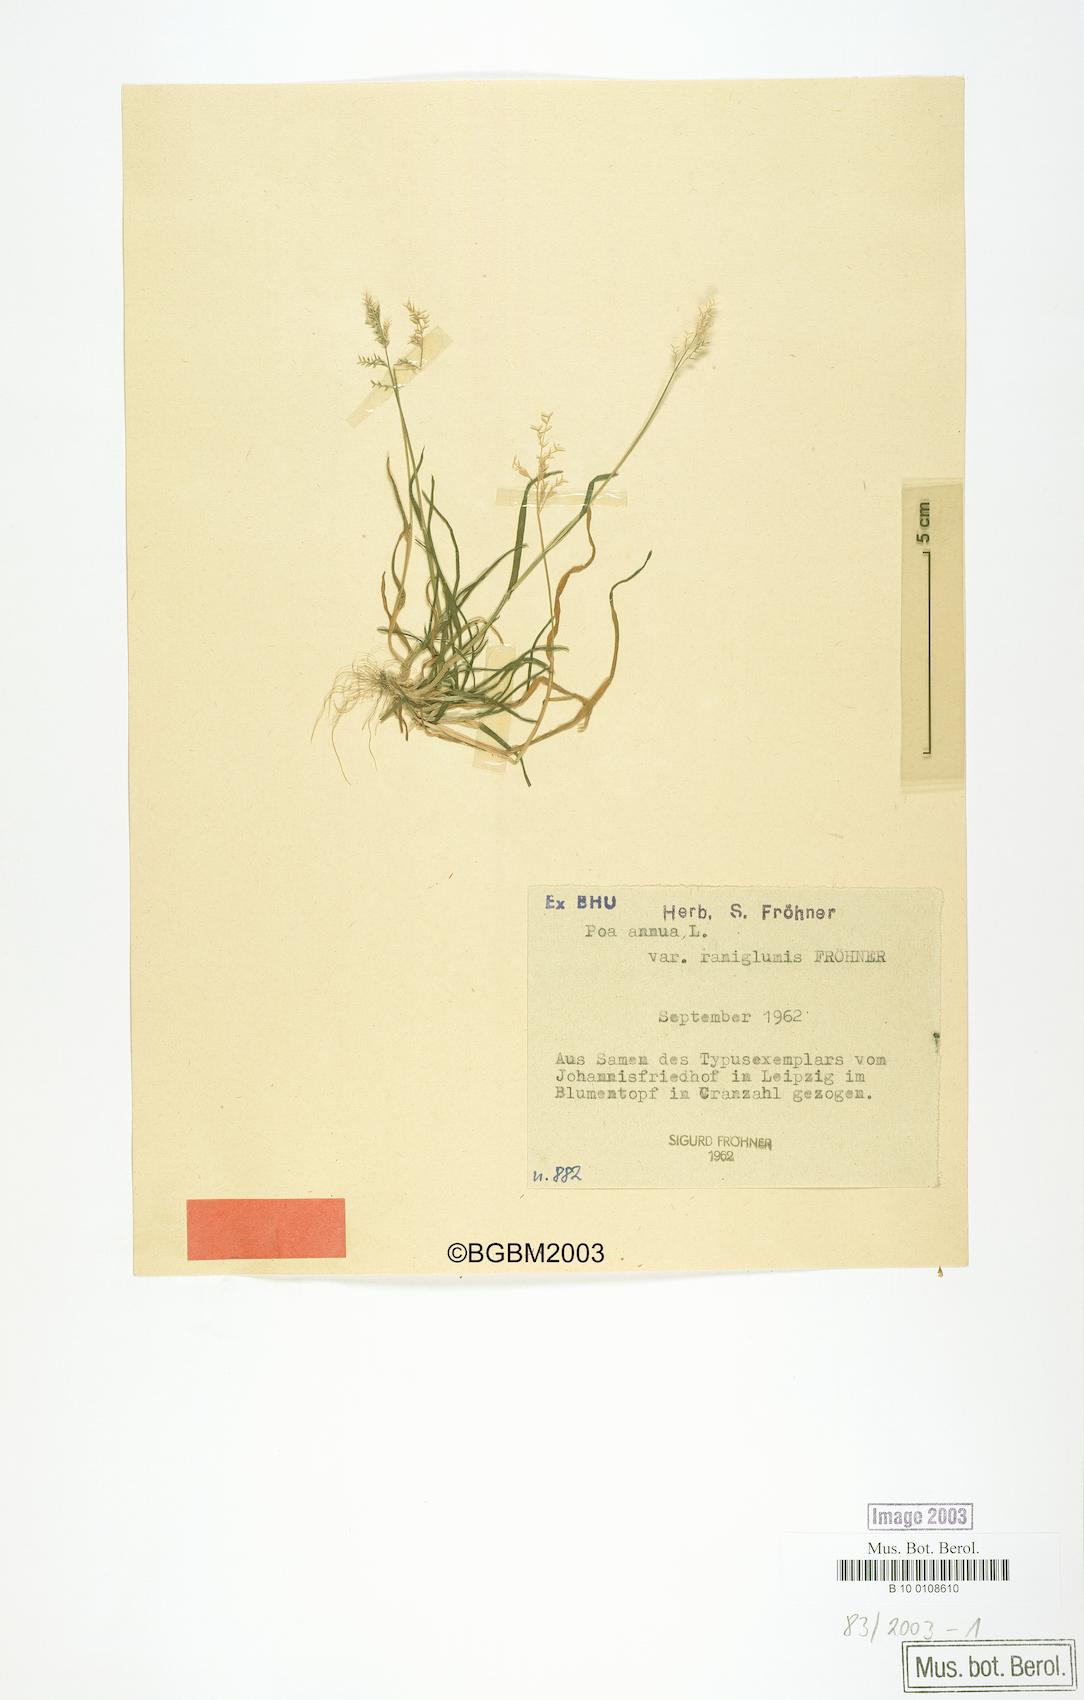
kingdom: Plantae
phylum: Tracheophyta
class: Liliopsida
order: Poales
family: Poaceae
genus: Poa
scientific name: Poa annua
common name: Annual bluegrass
